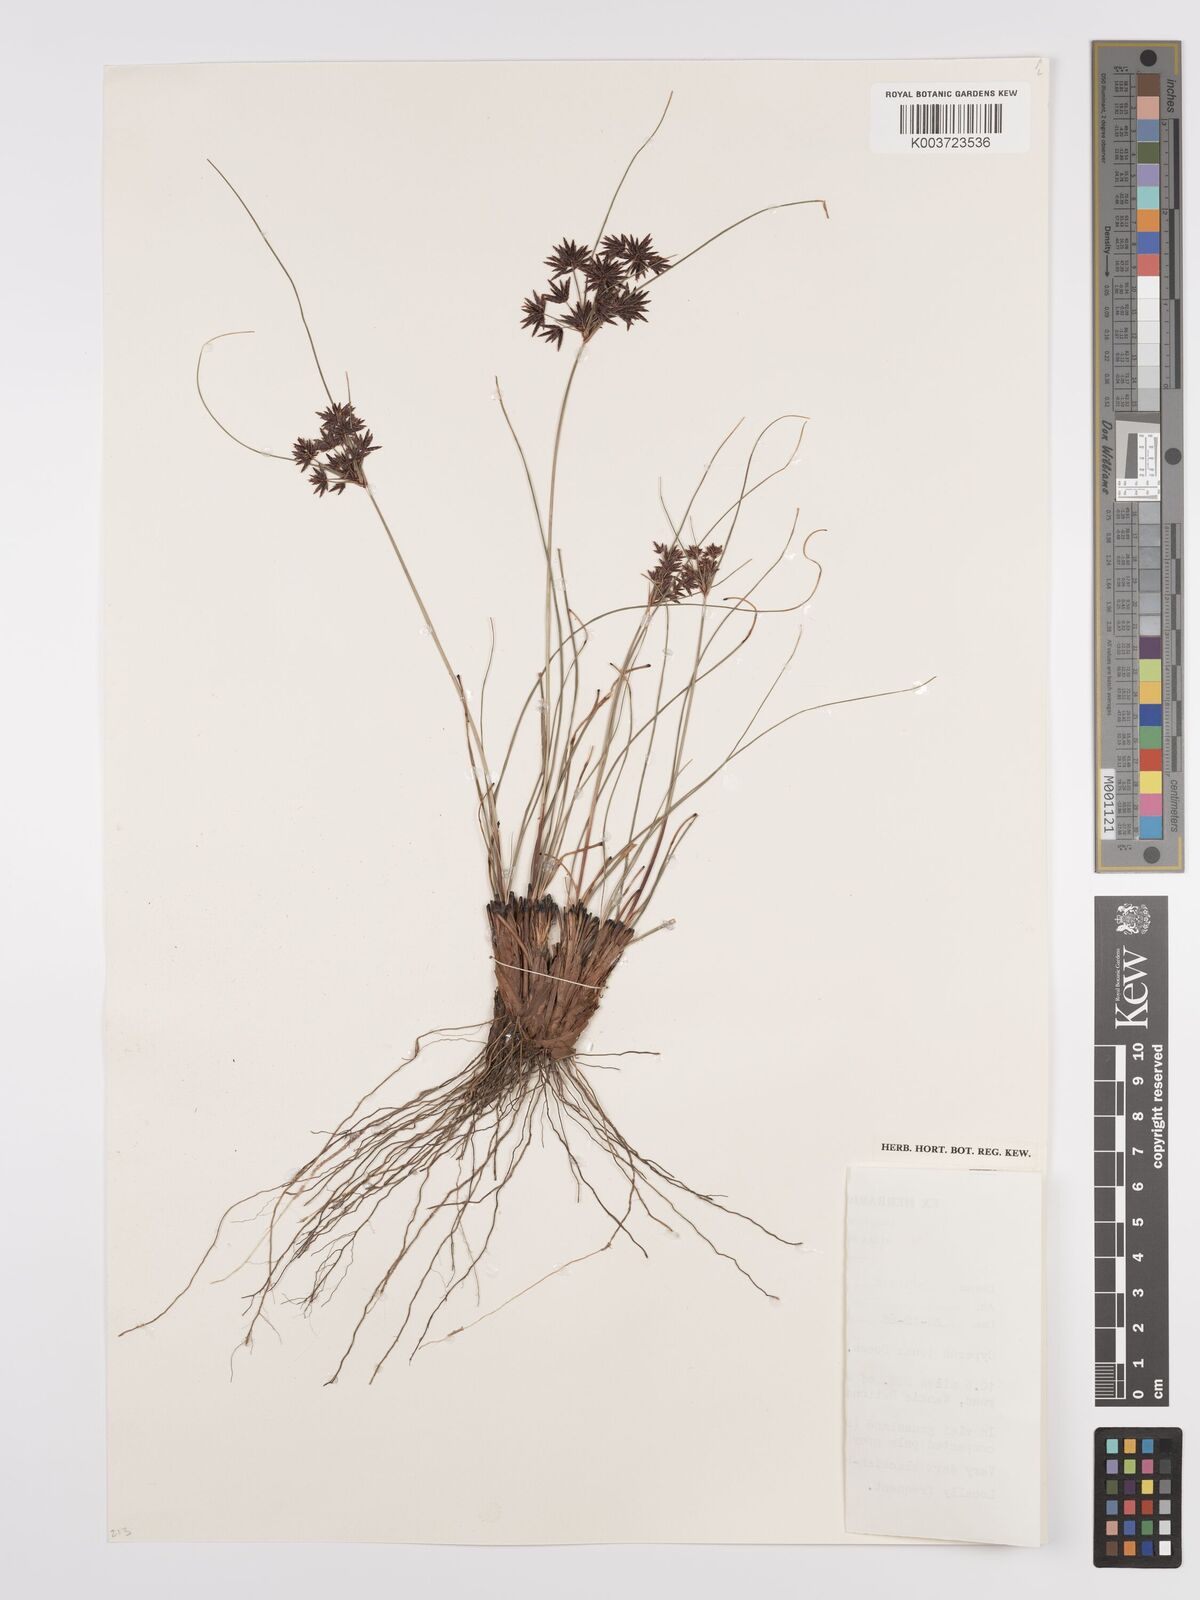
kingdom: Plantae
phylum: Tracheophyta
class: Liliopsida
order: Poales
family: Cyperaceae
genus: Cyperus
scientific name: Cyperus tenax
